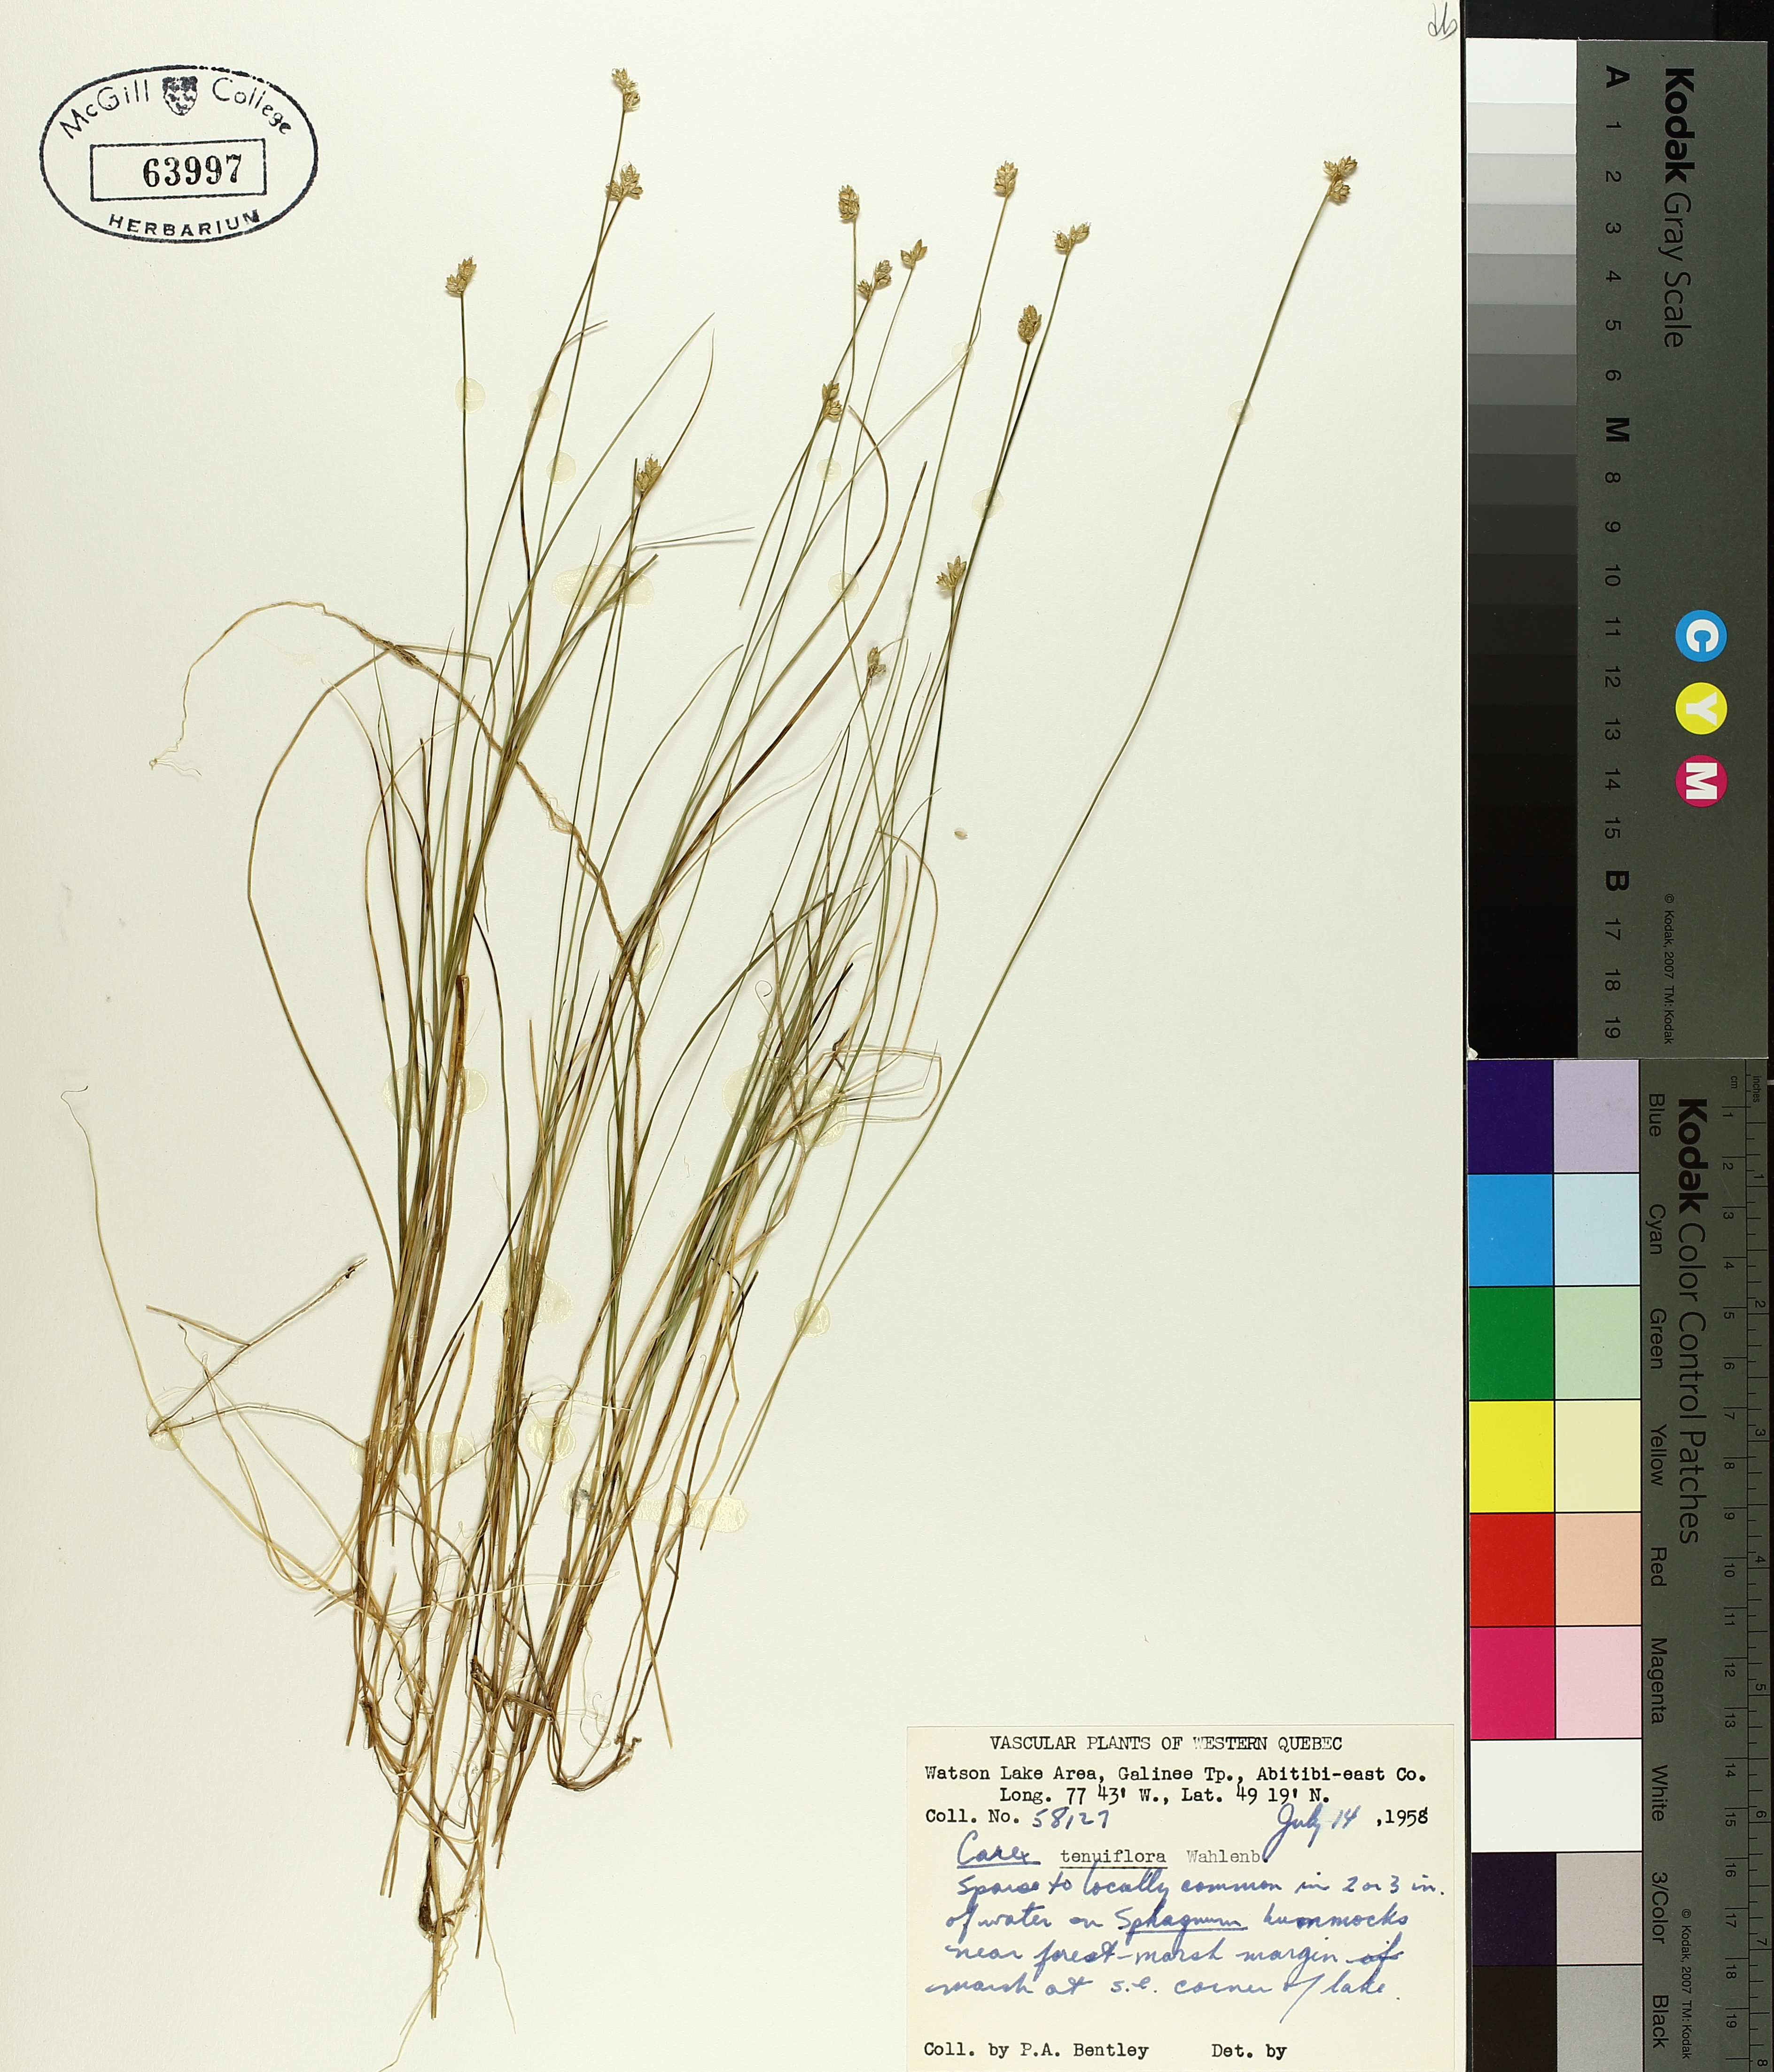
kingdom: Plantae
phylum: Tracheophyta
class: Liliopsida
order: Poales
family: Cyperaceae
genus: Carex
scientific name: Carex tenuiflora
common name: Sparse-flowered sedge
